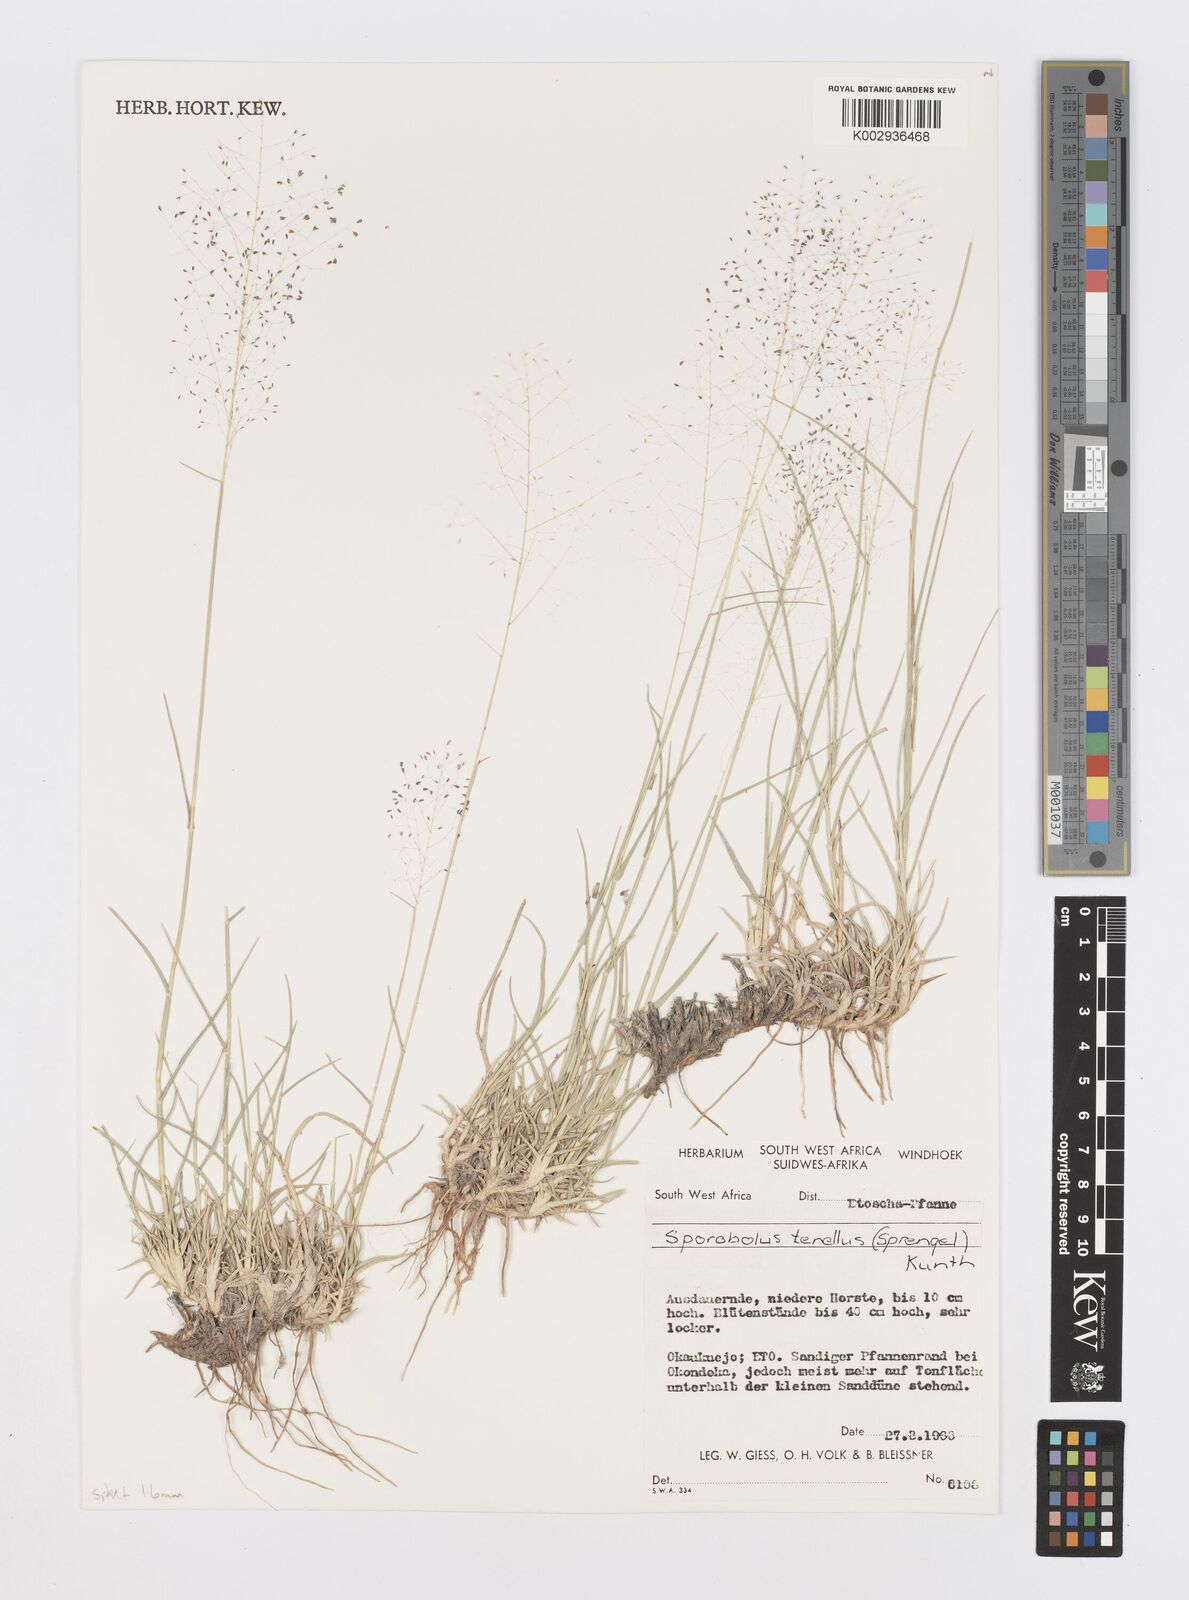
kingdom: Plantae
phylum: Tracheophyta
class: Liliopsida
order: Poales
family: Poaceae
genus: Sporobolus
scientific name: Sporobolus acinifolius
